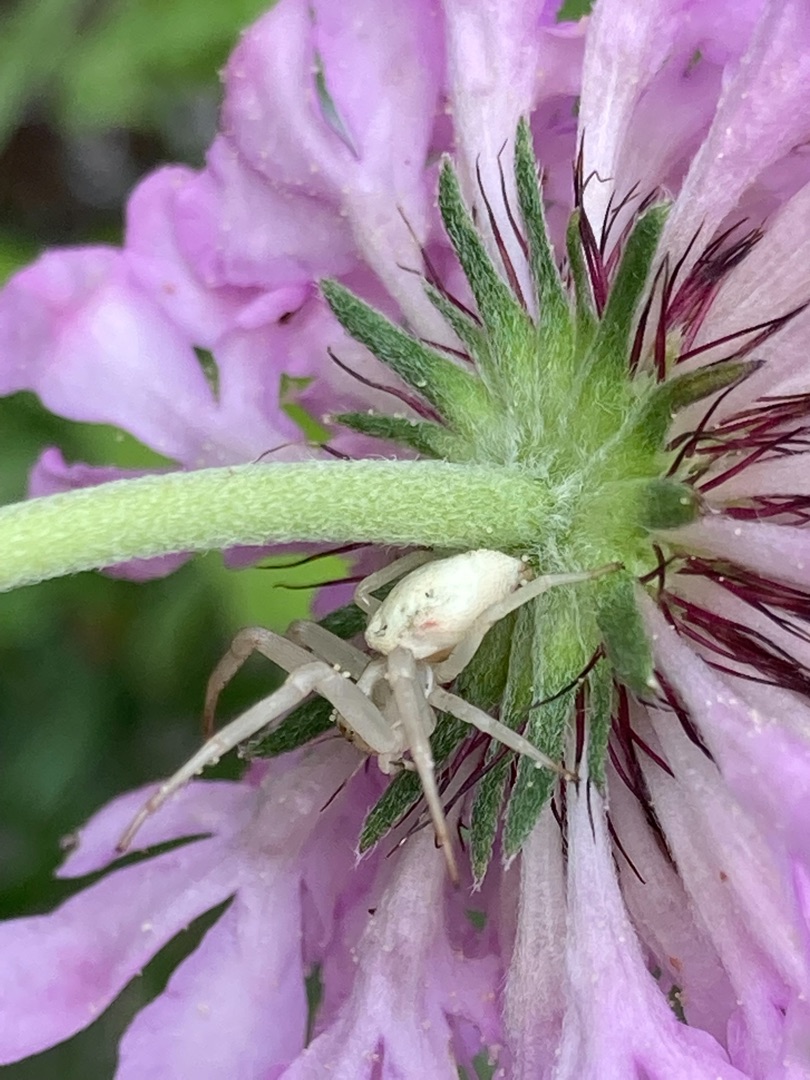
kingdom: Animalia
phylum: Arthropoda
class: Arachnida
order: Araneae
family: Thomisidae
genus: Misumena
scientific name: Misumena vatia
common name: Kamæleonedderkop
